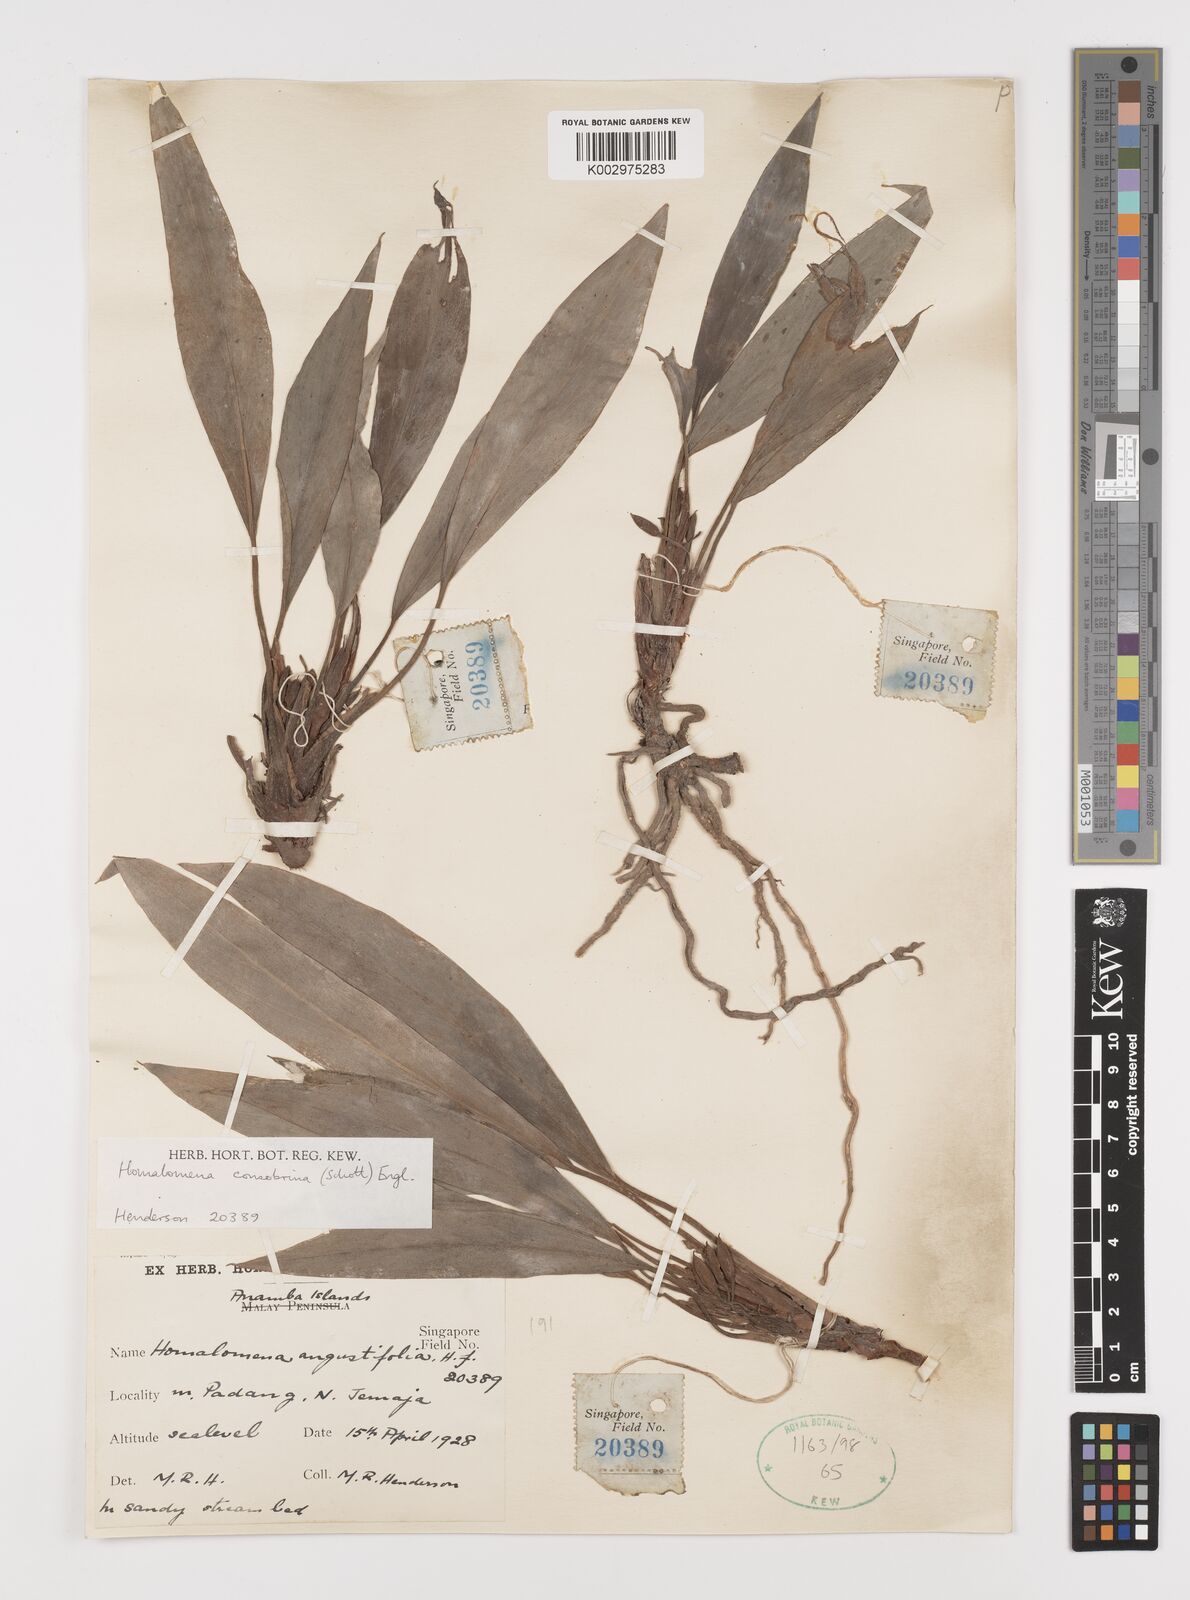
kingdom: Plantae
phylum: Tracheophyta
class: Liliopsida
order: Alismatales
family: Araceae
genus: Homalomena
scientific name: Homalomena consobrina
